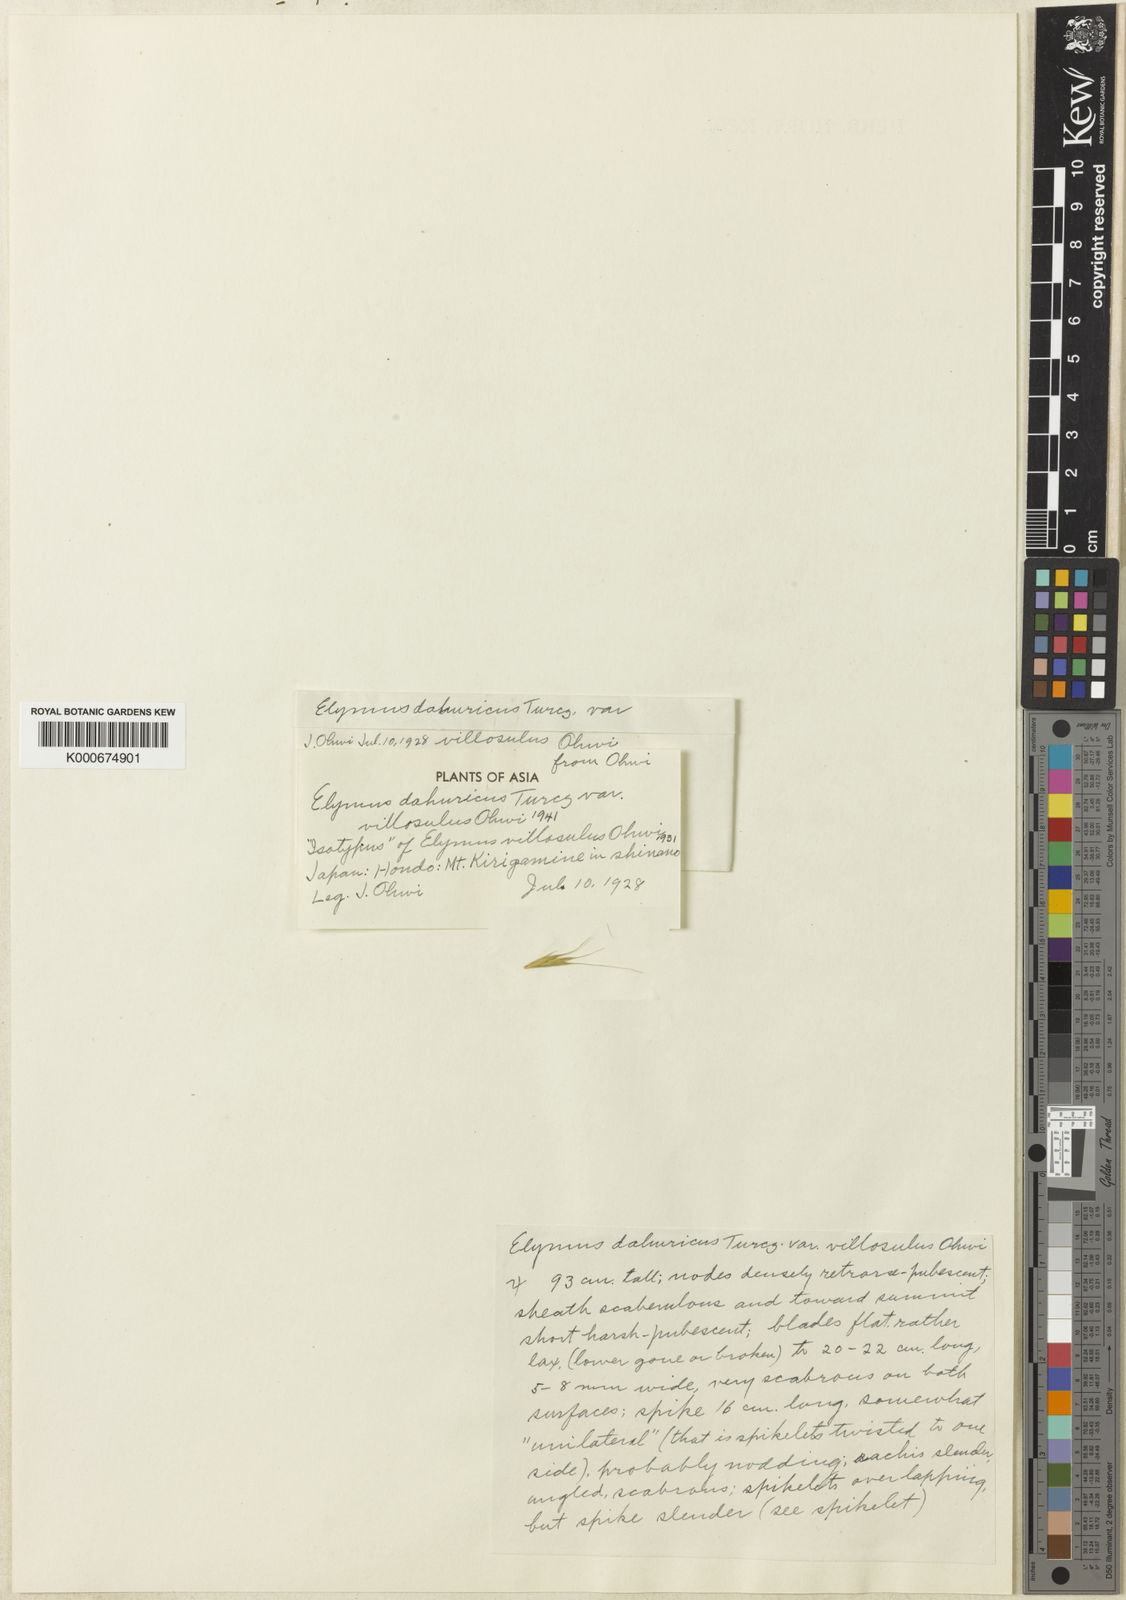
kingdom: Plantae
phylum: Tracheophyta
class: Liliopsida
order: Poales
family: Poaceae
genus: Elymus
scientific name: Elymus dahuricus
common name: Dahurian wild rye
